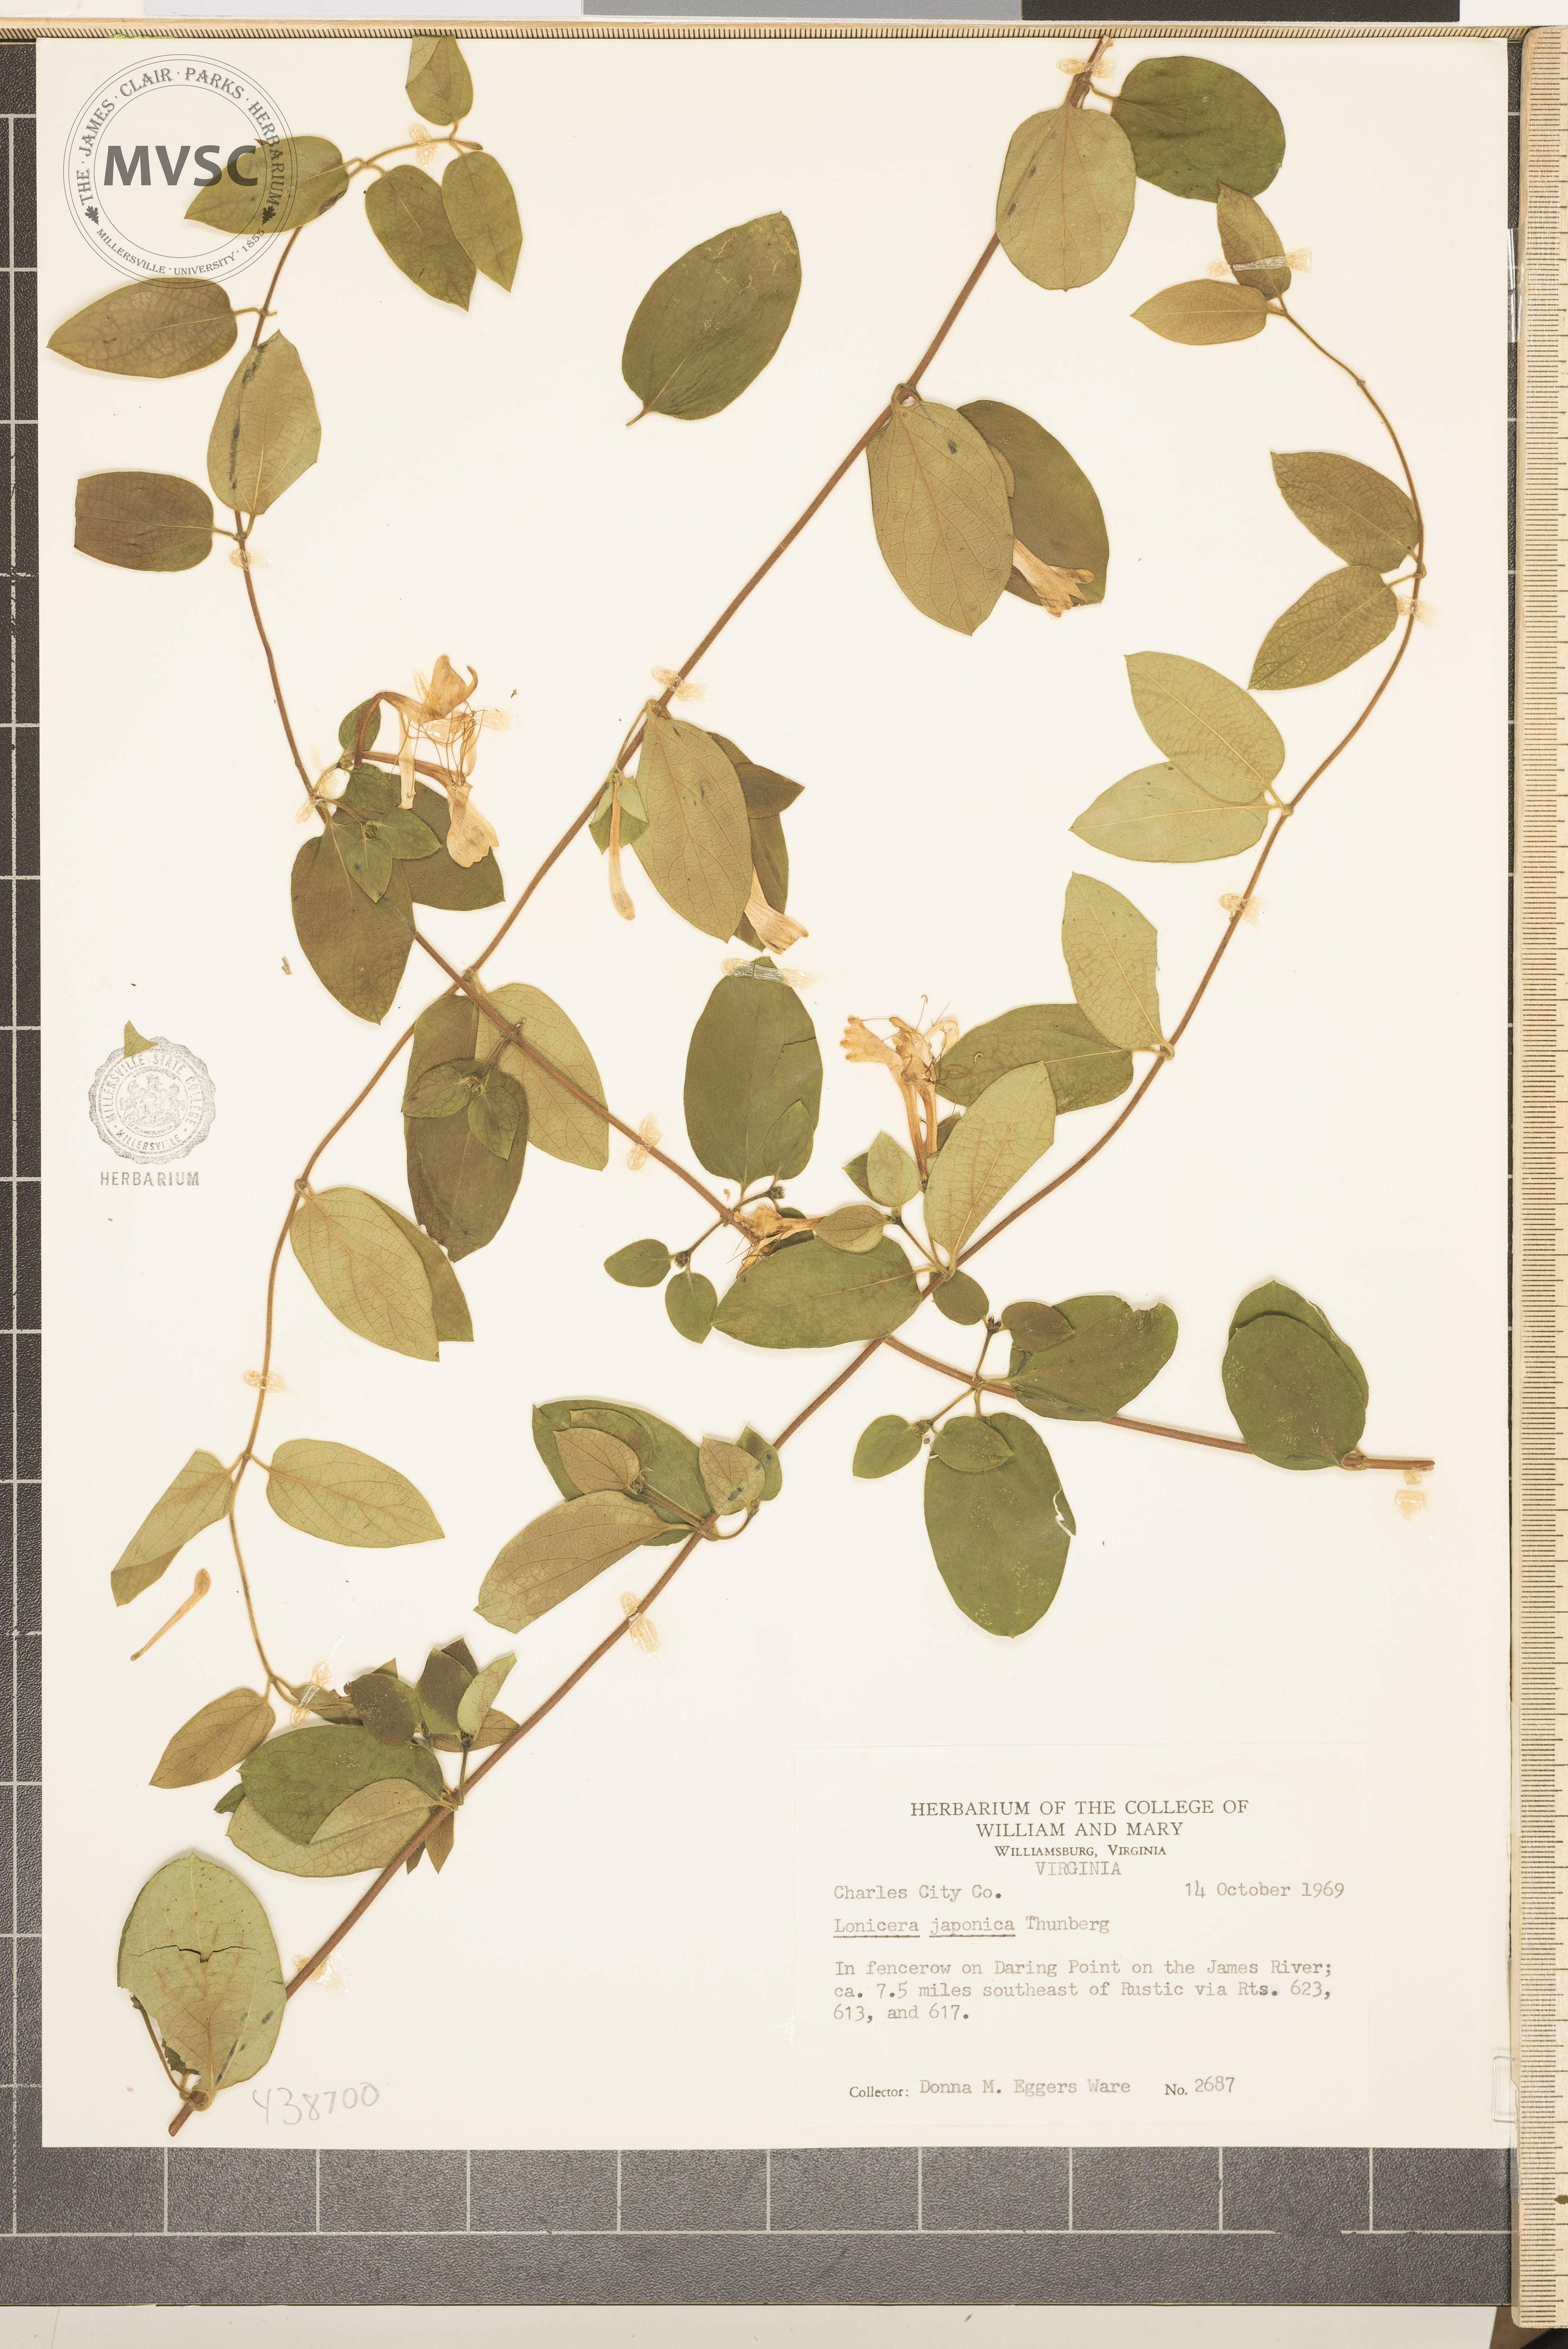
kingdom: Plantae
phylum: Tracheophyta
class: Magnoliopsida
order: Dipsacales
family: Caprifoliaceae
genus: Lonicera
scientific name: Lonicera japonica
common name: Japanese honeysuckle
